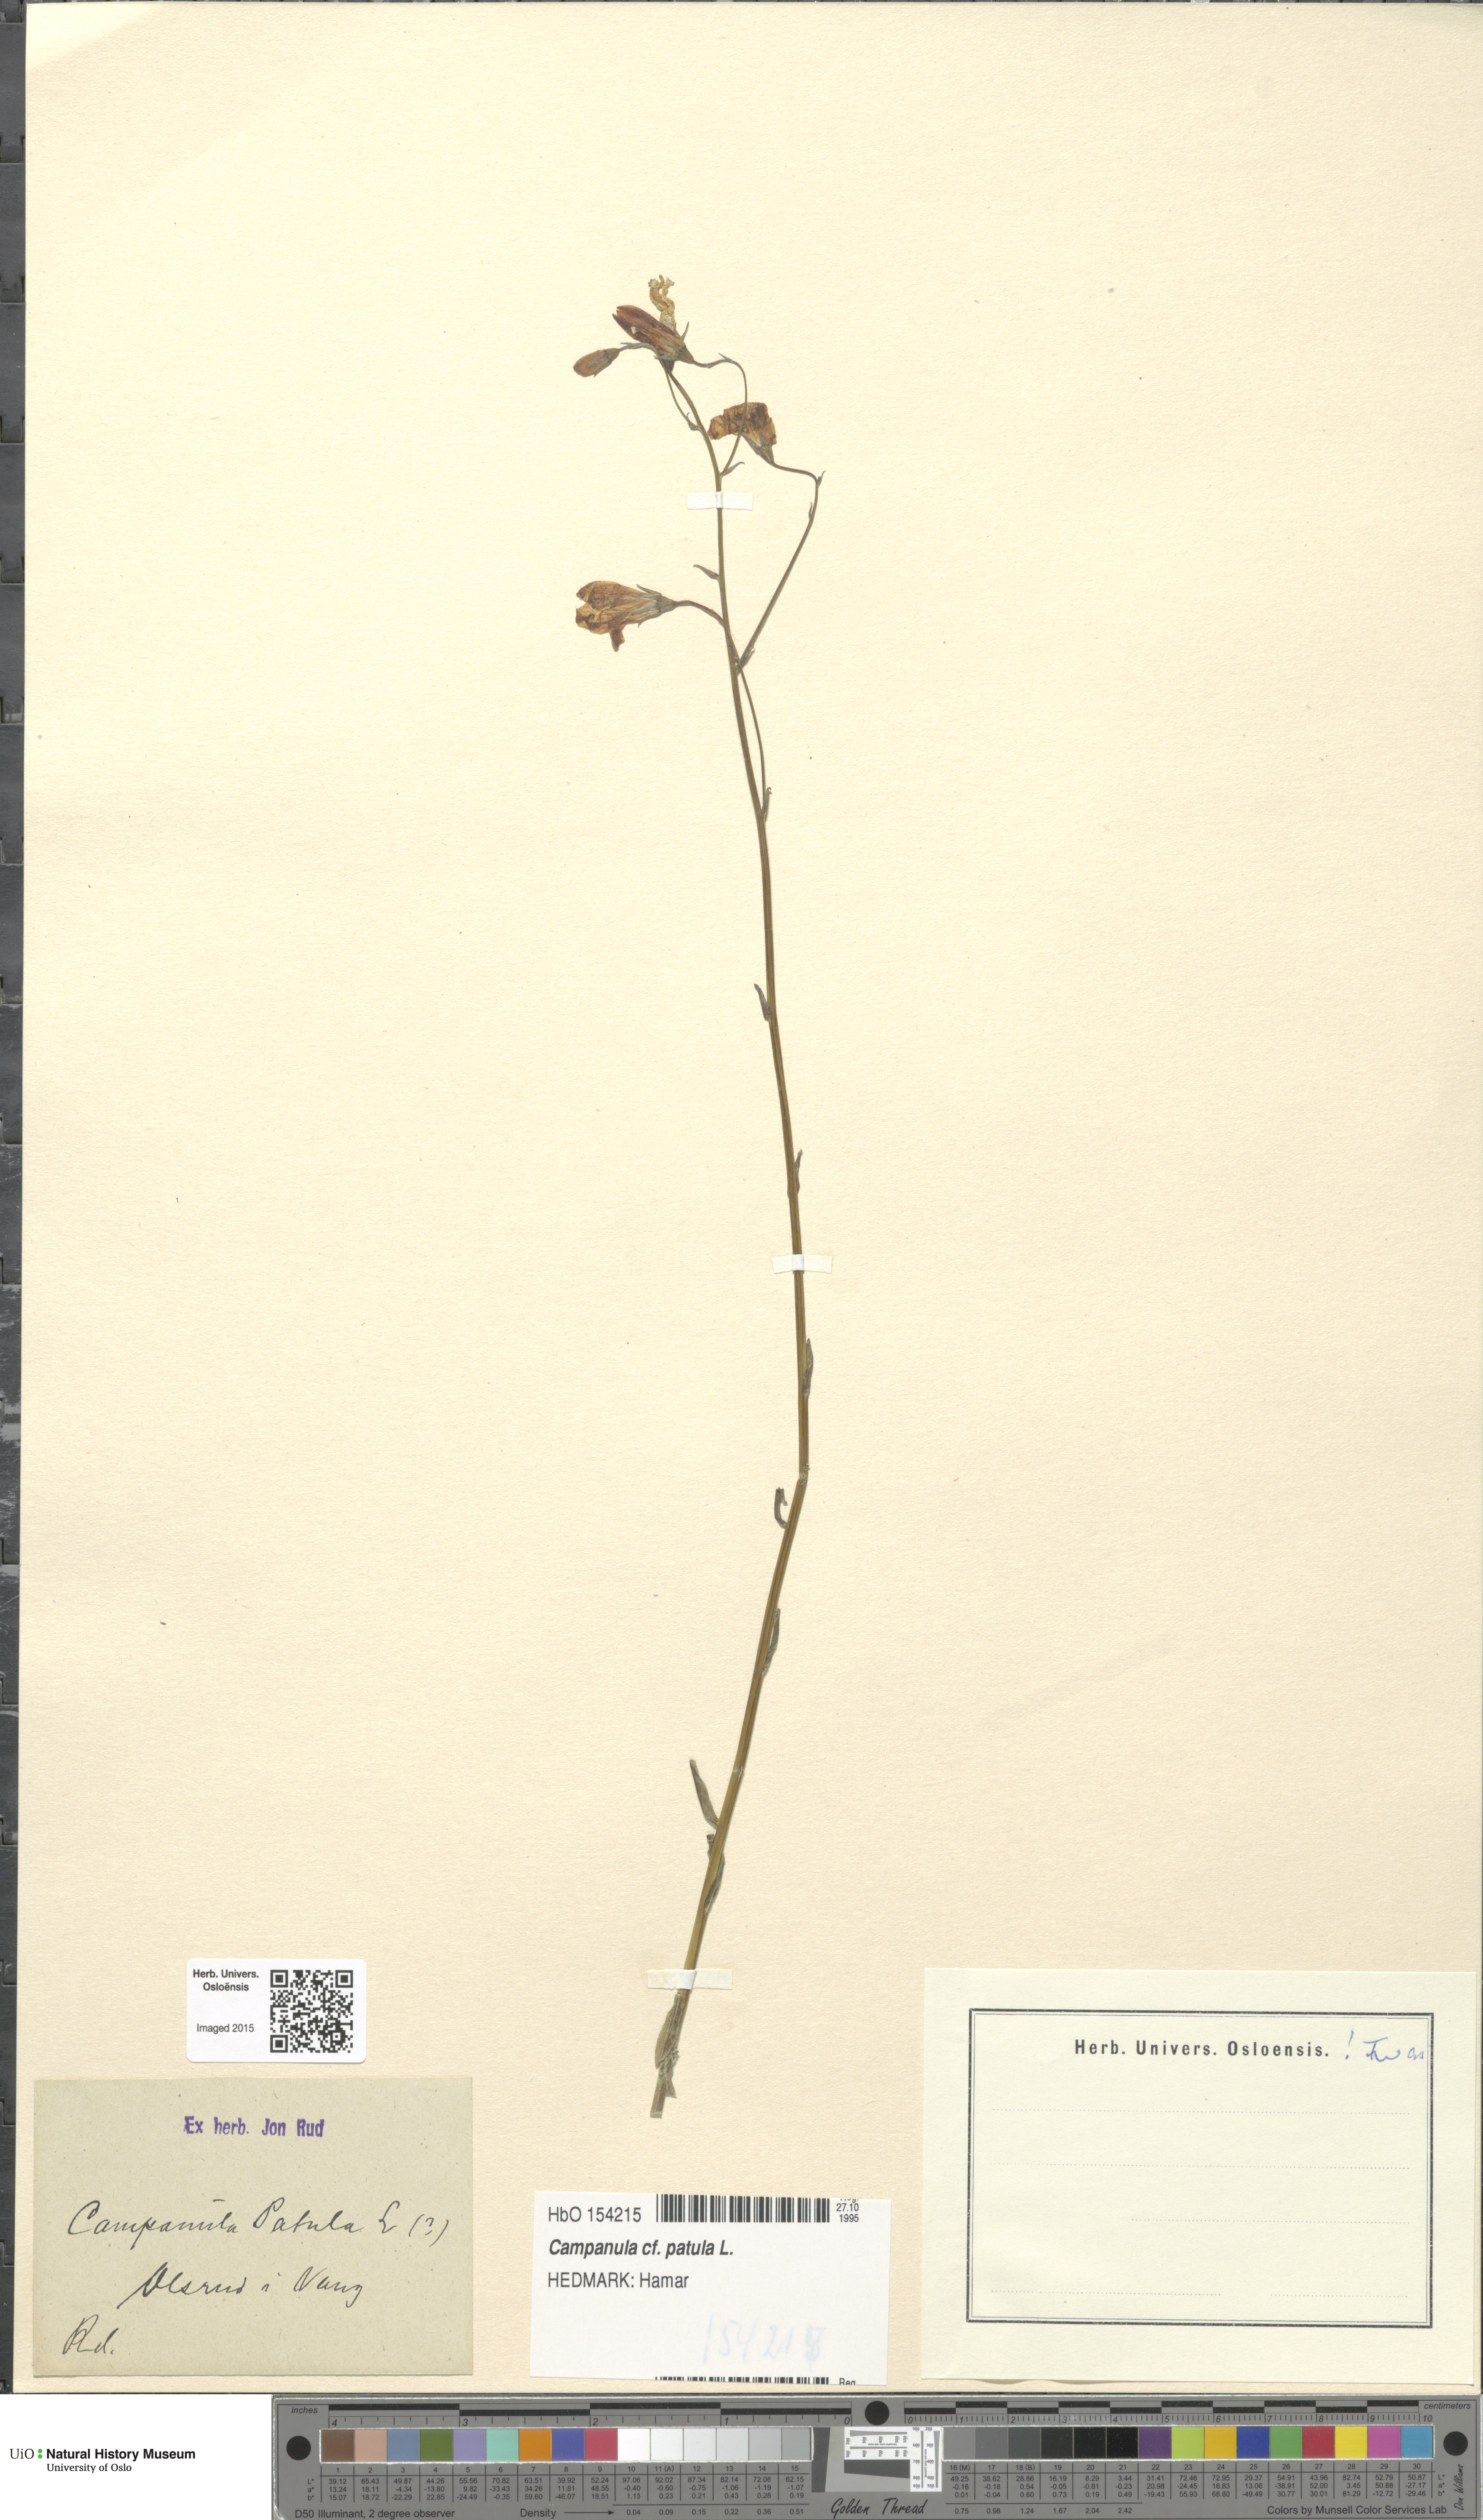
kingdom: Plantae
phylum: Tracheophyta
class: Magnoliopsida
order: Asterales
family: Campanulaceae
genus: Campanula
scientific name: Campanula patula
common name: Spreading bellflower
